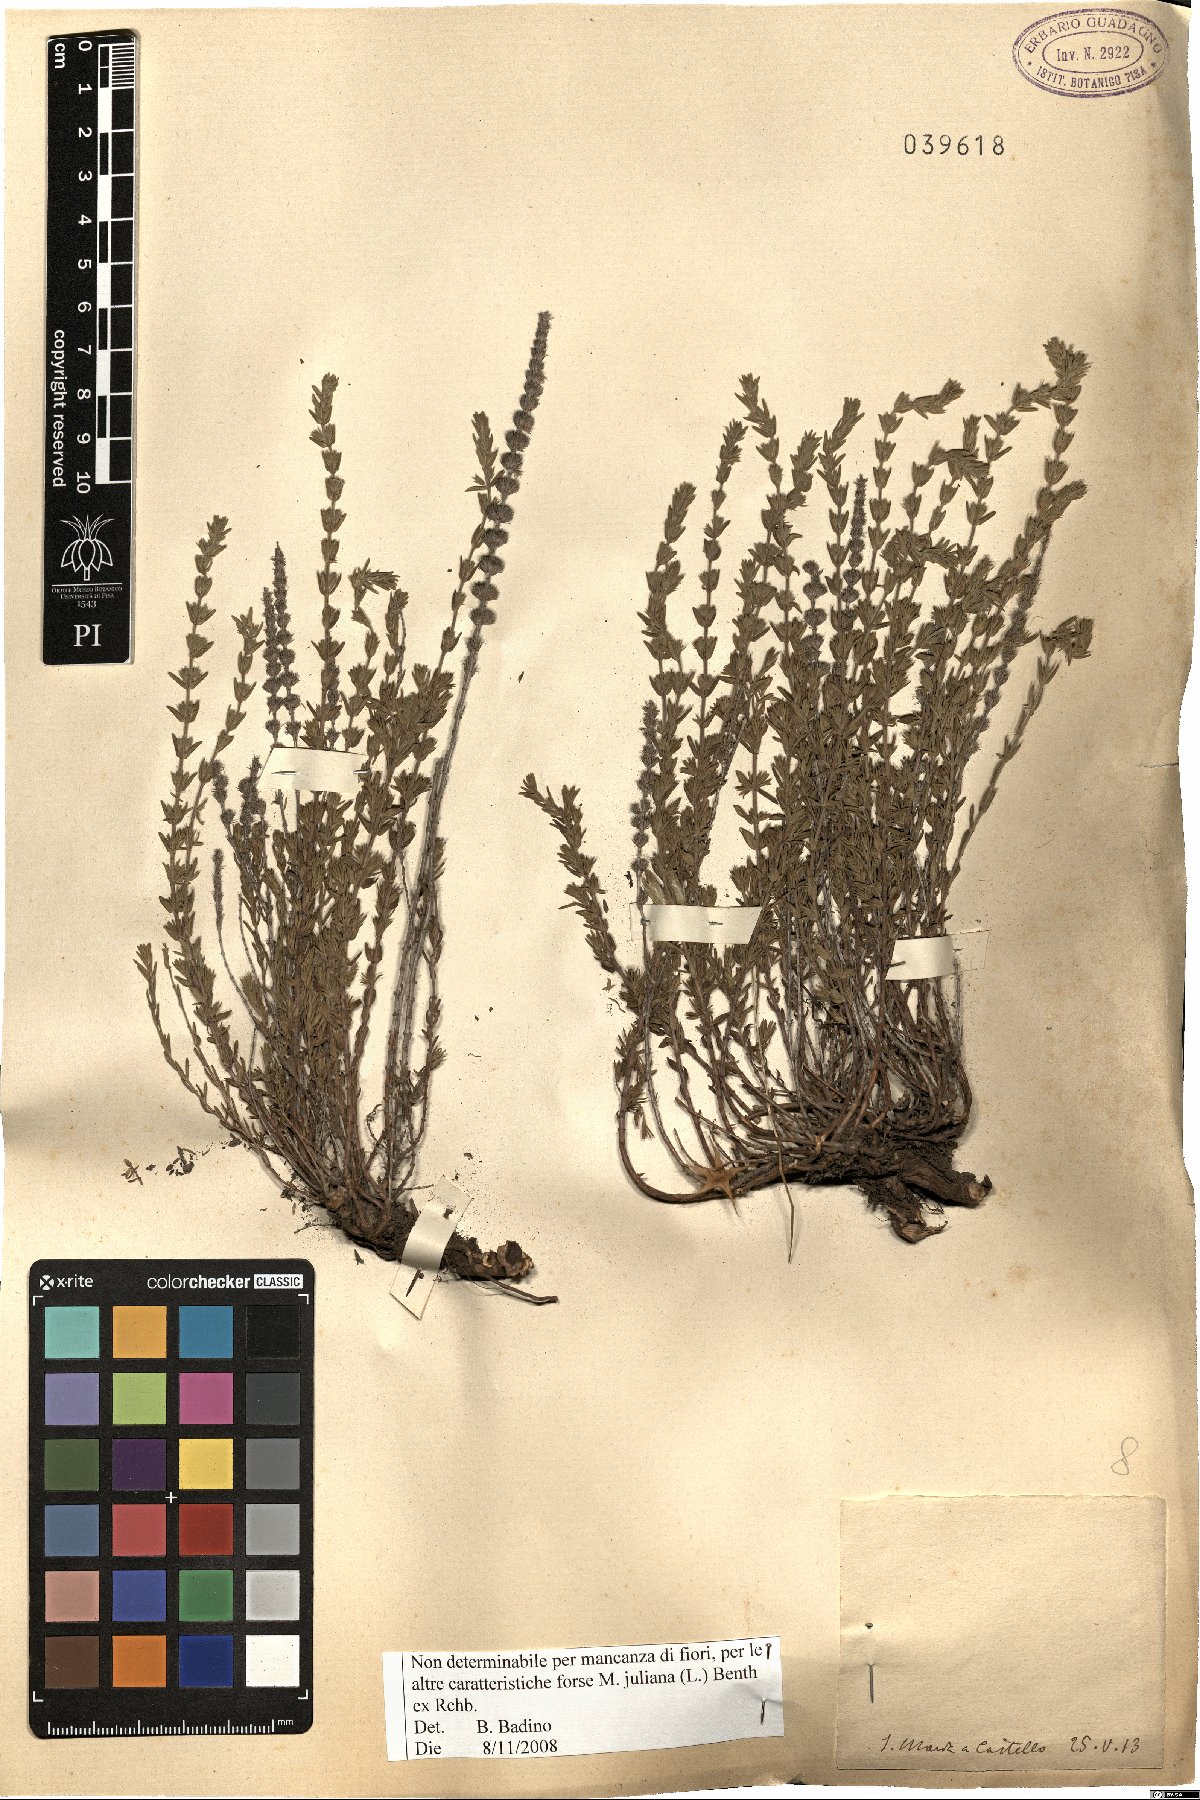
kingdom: Plantae
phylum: Tracheophyta
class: Magnoliopsida
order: Lamiales
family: Lamiaceae
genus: Micromeria
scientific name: Micromeria juliana
